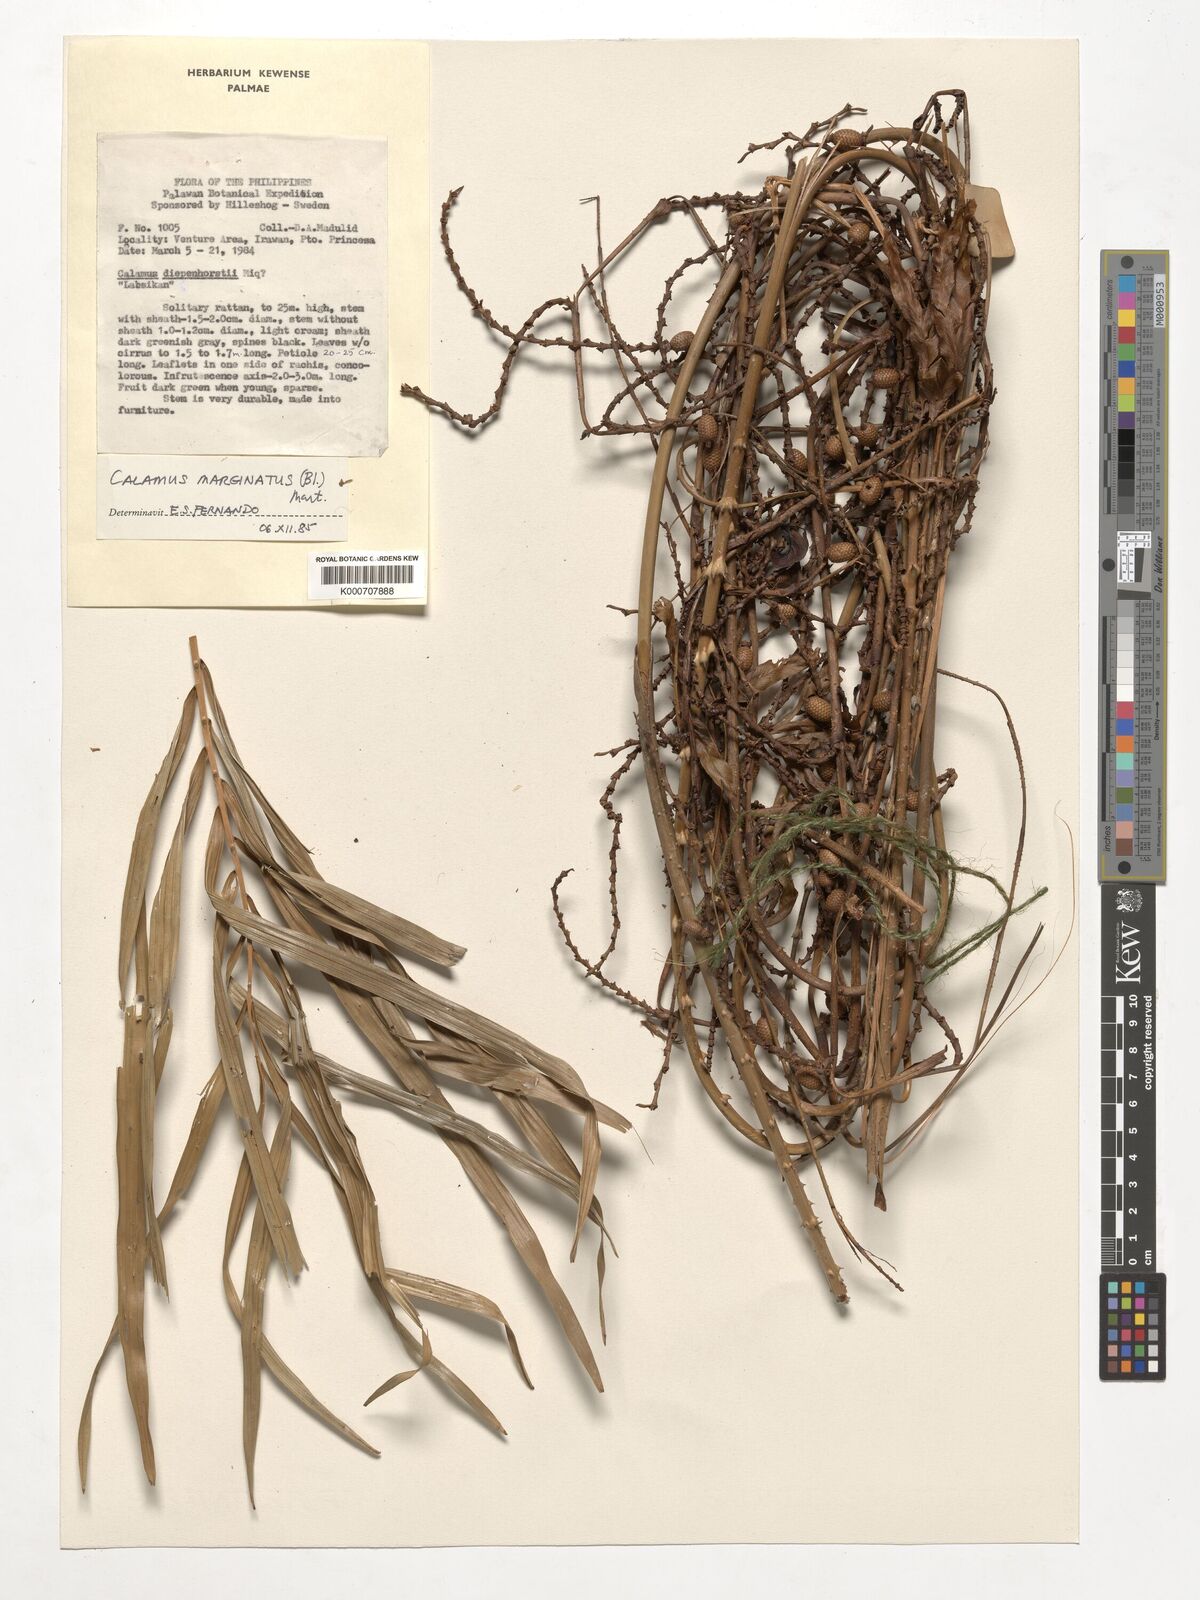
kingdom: Plantae
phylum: Tracheophyta
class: Liliopsida
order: Arecales
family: Arecaceae
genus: Calamus
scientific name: Calamus marginatus
